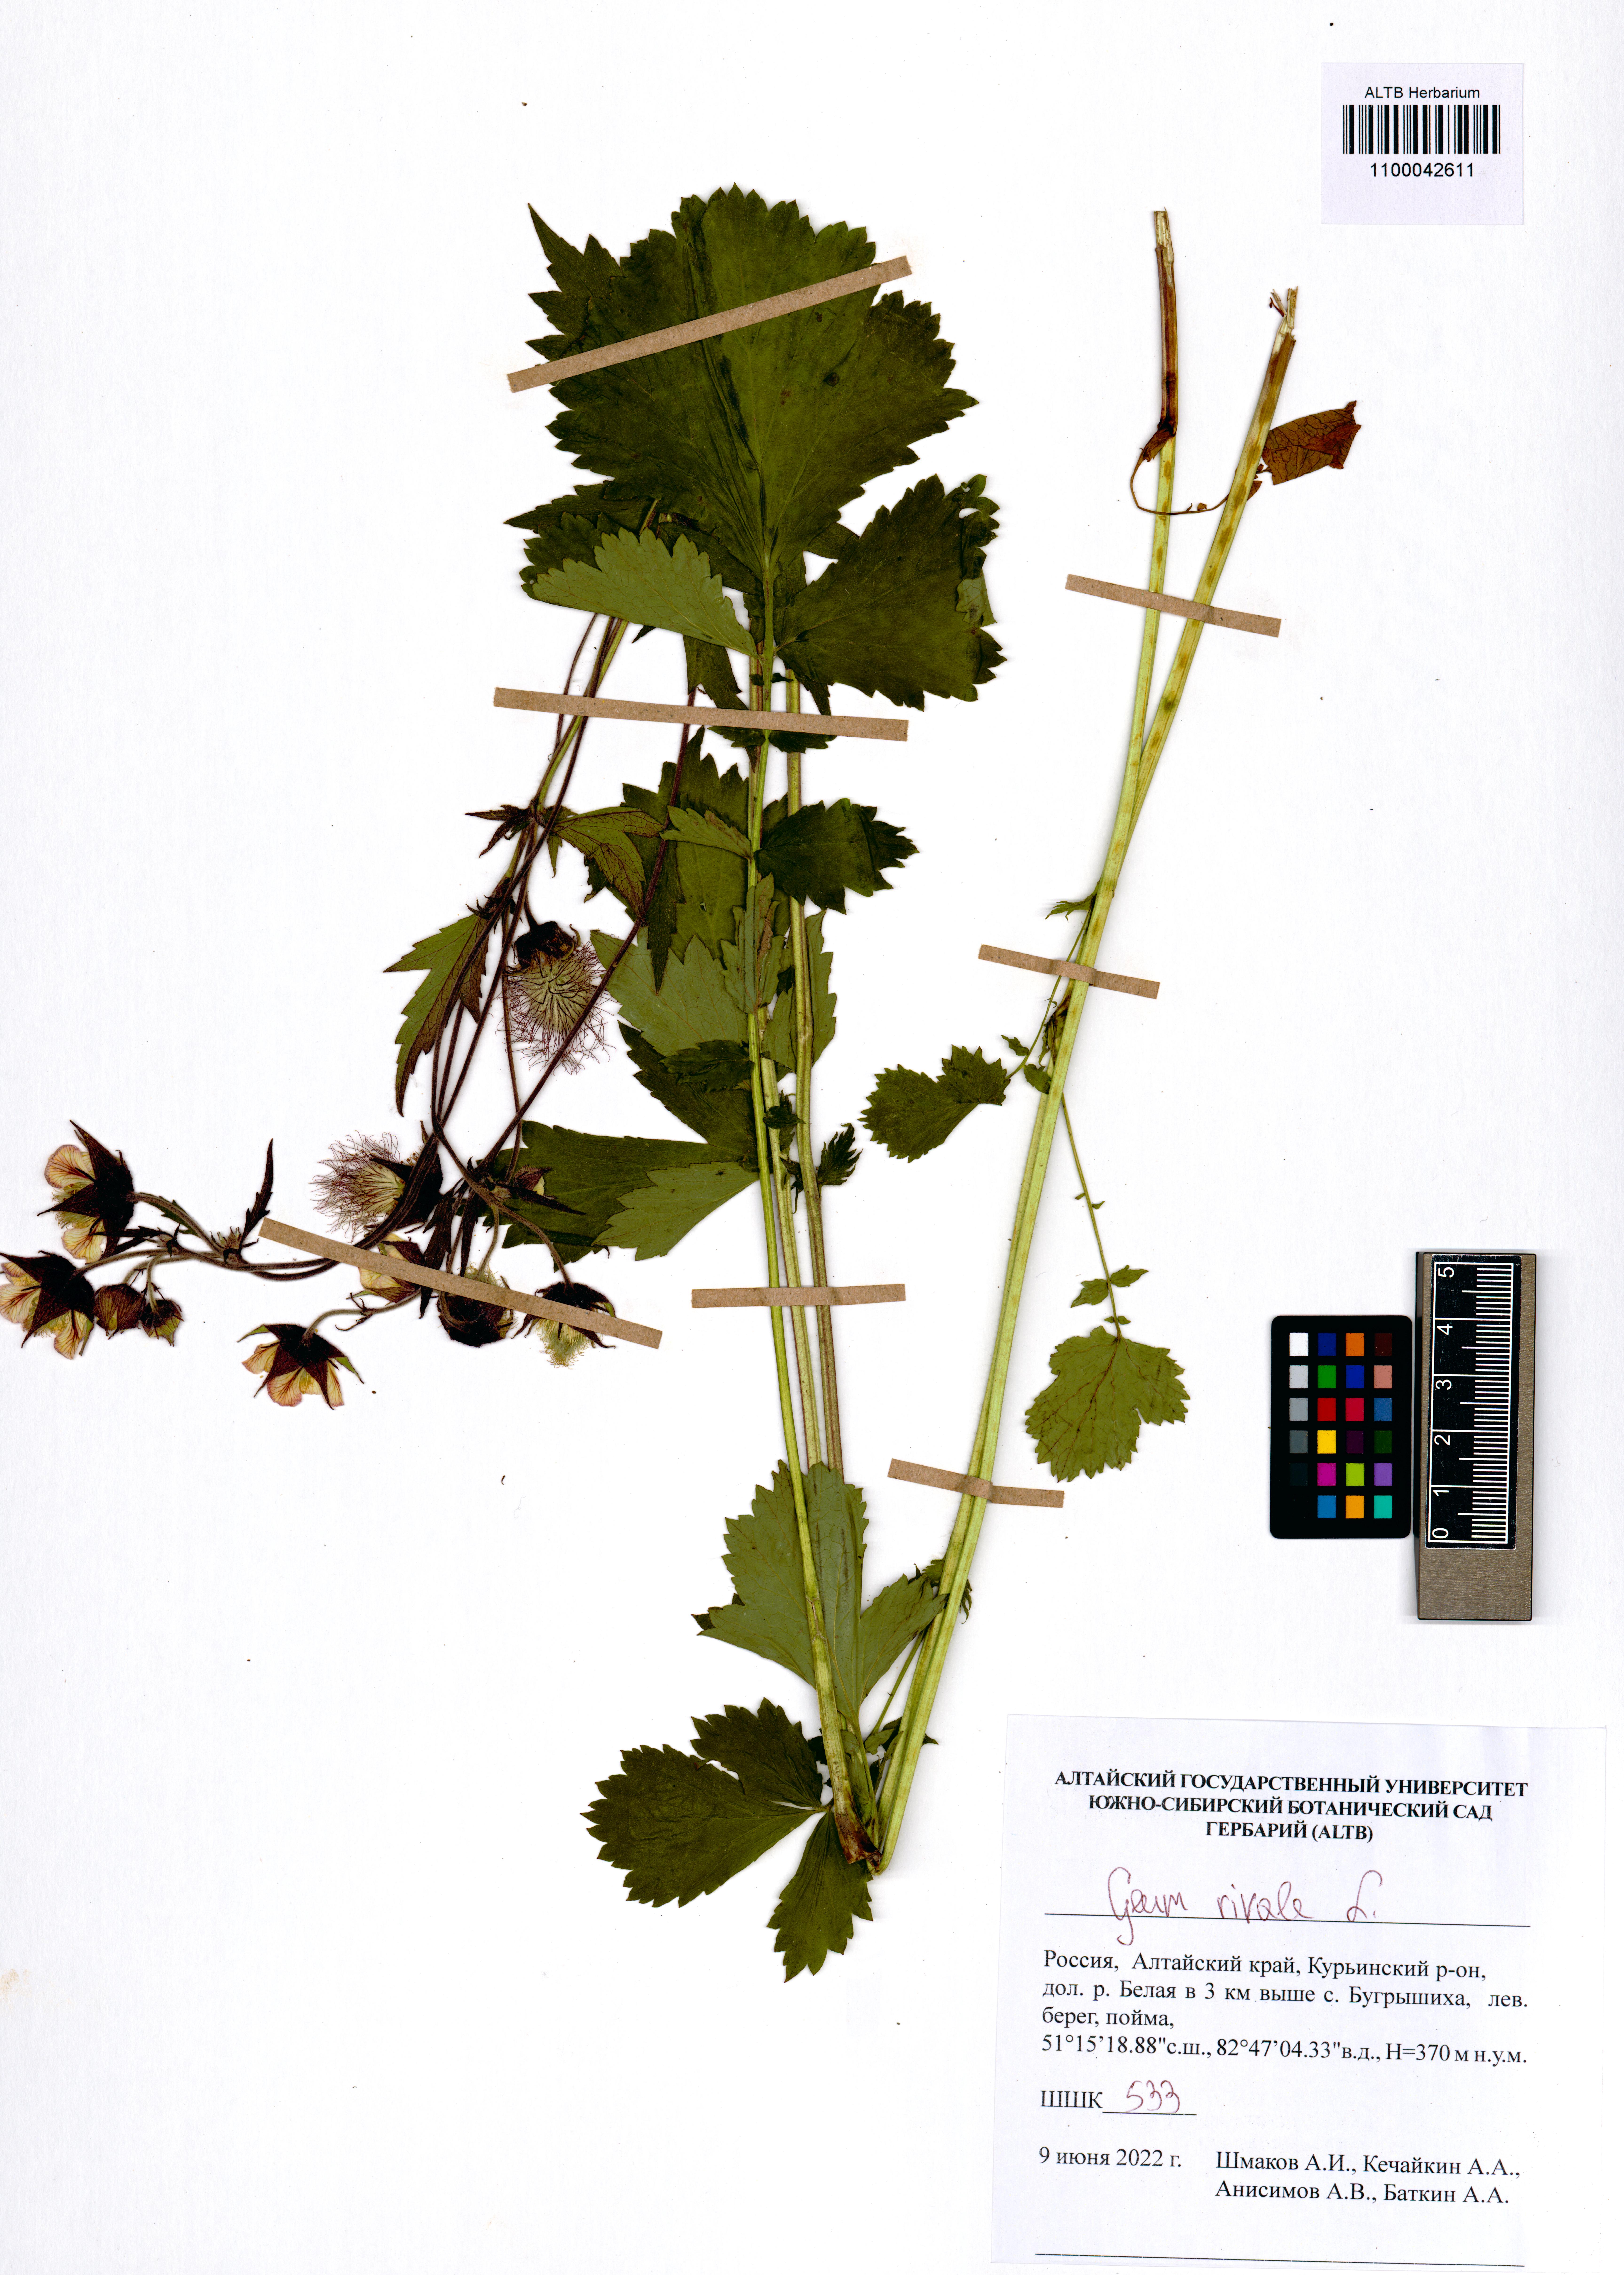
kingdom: Plantae
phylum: Tracheophyta
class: Magnoliopsida
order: Rosales
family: Rosaceae
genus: Geum
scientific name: Geum rivale
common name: Water avens
